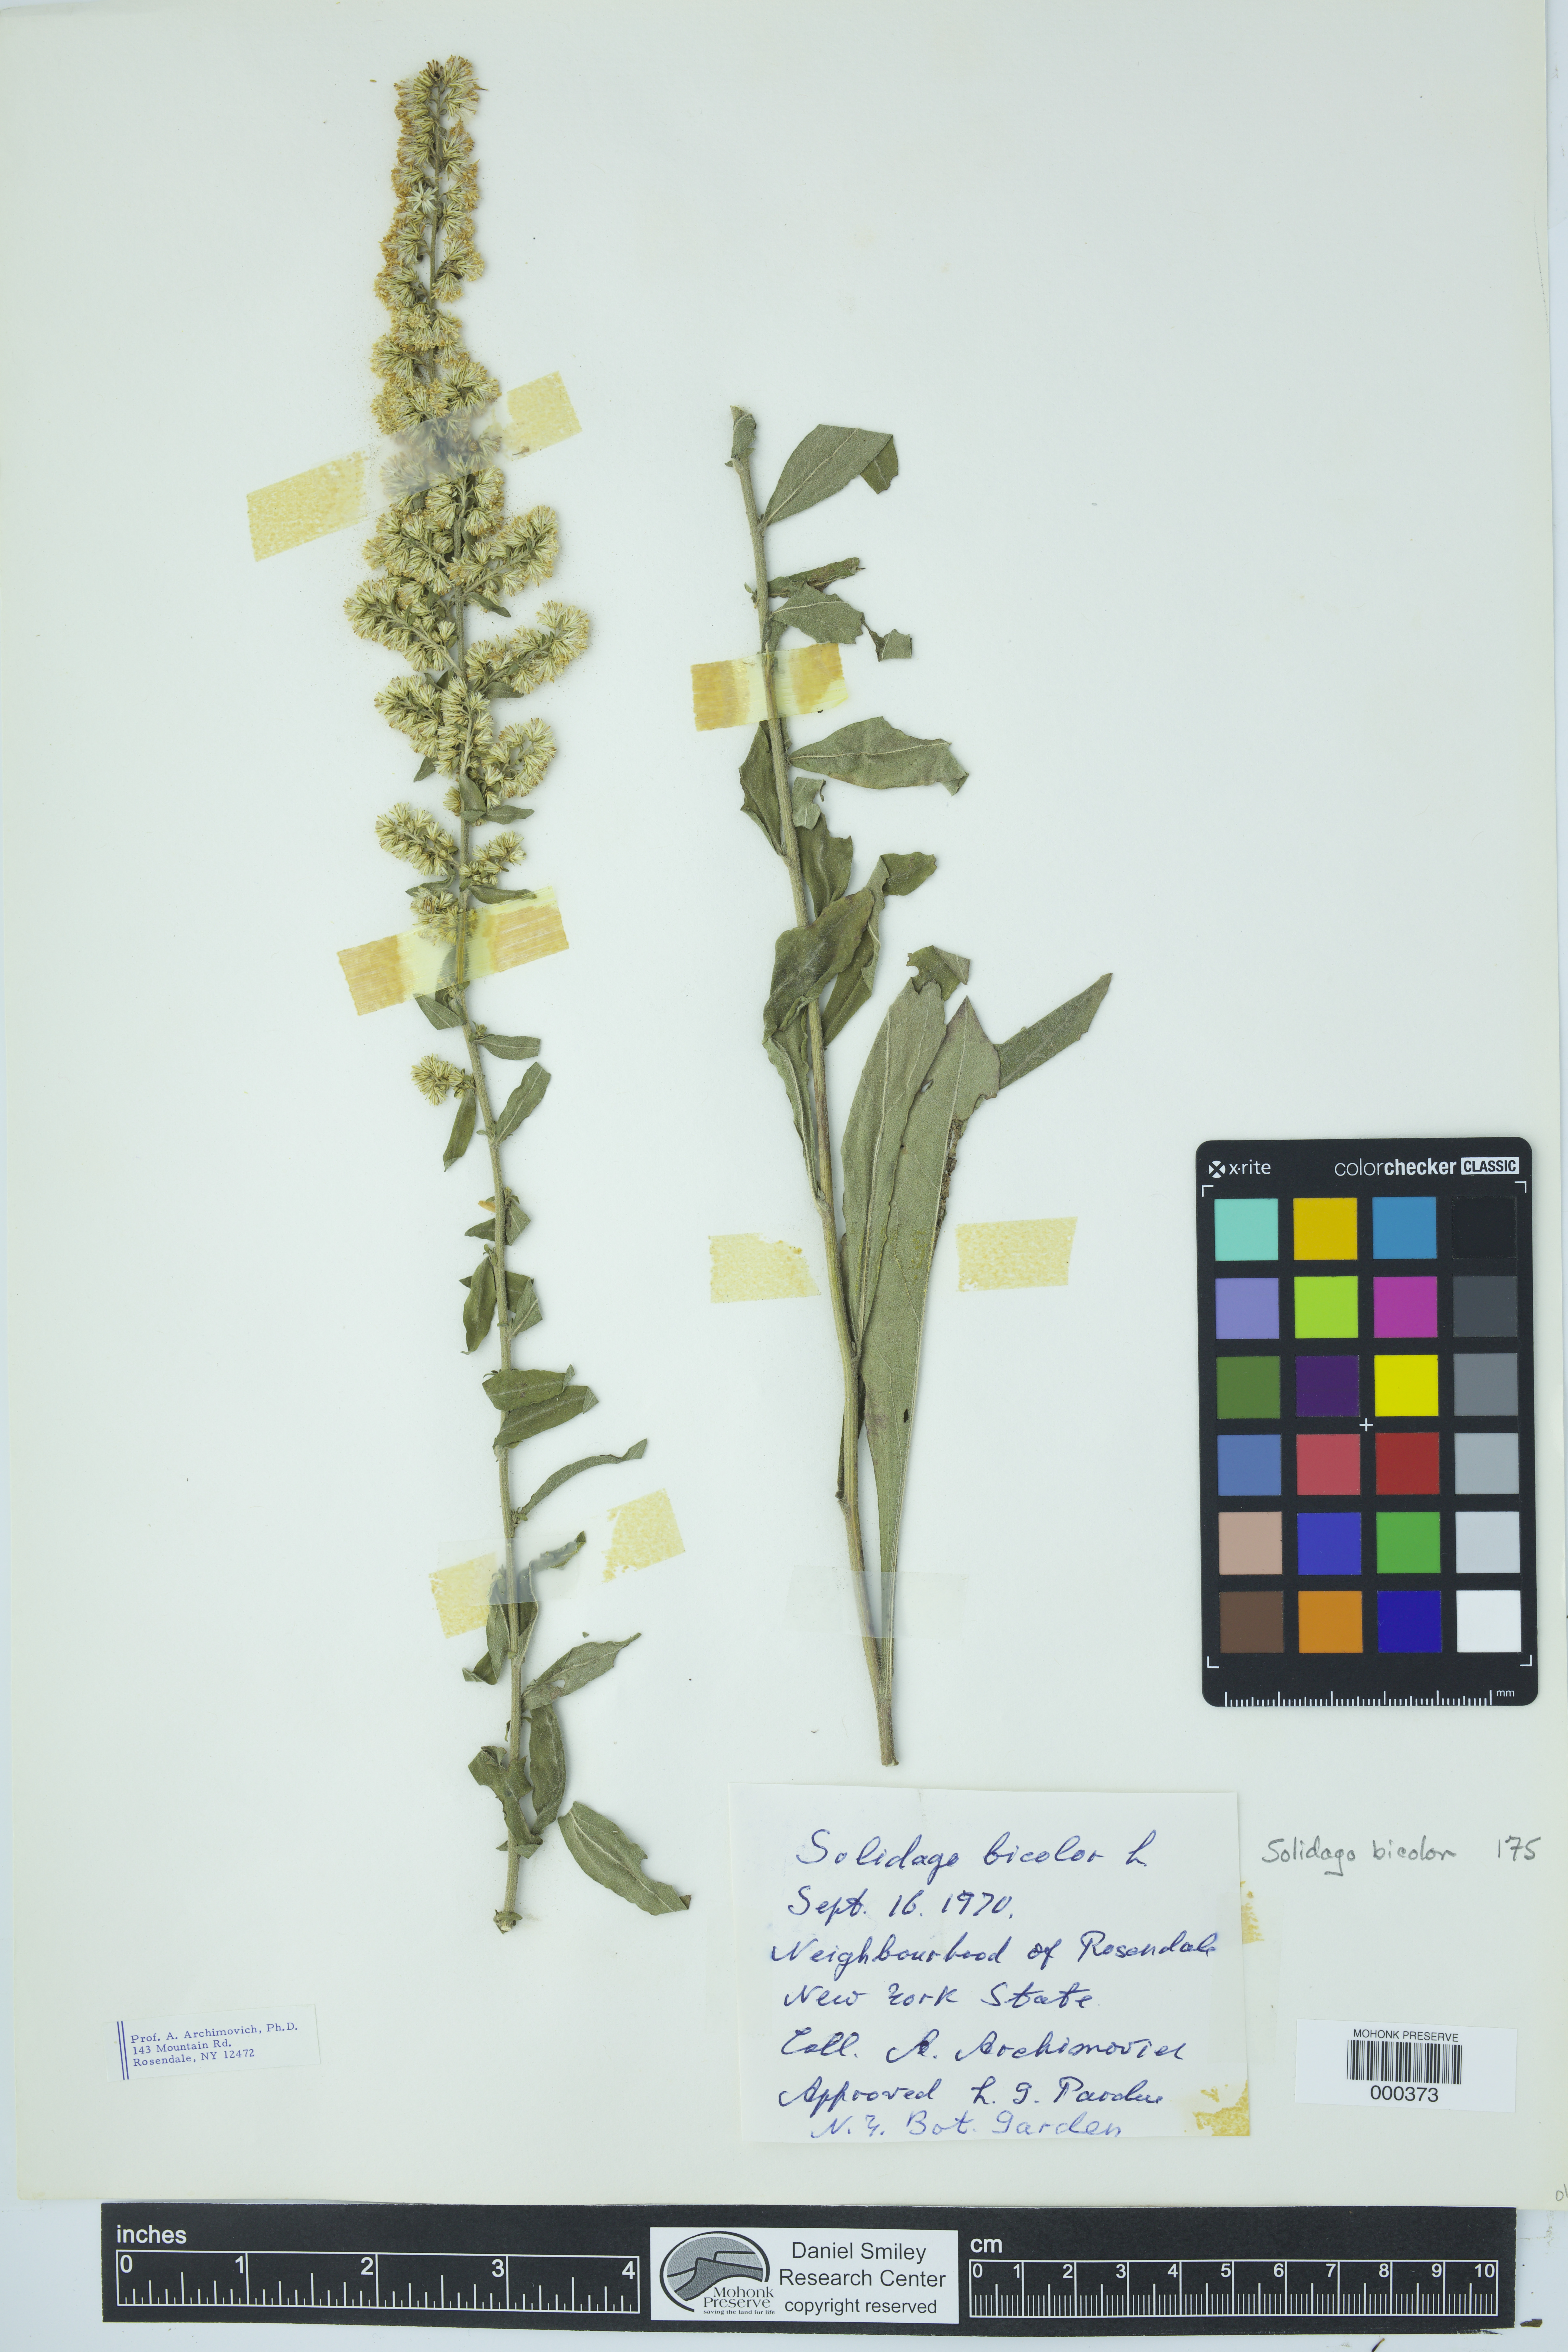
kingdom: Plantae
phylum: Tracheophyta
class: Magnoliopsida
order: Asterales
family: Asteraceae
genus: Solidago
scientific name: Solidago bicolor
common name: Silverrod
